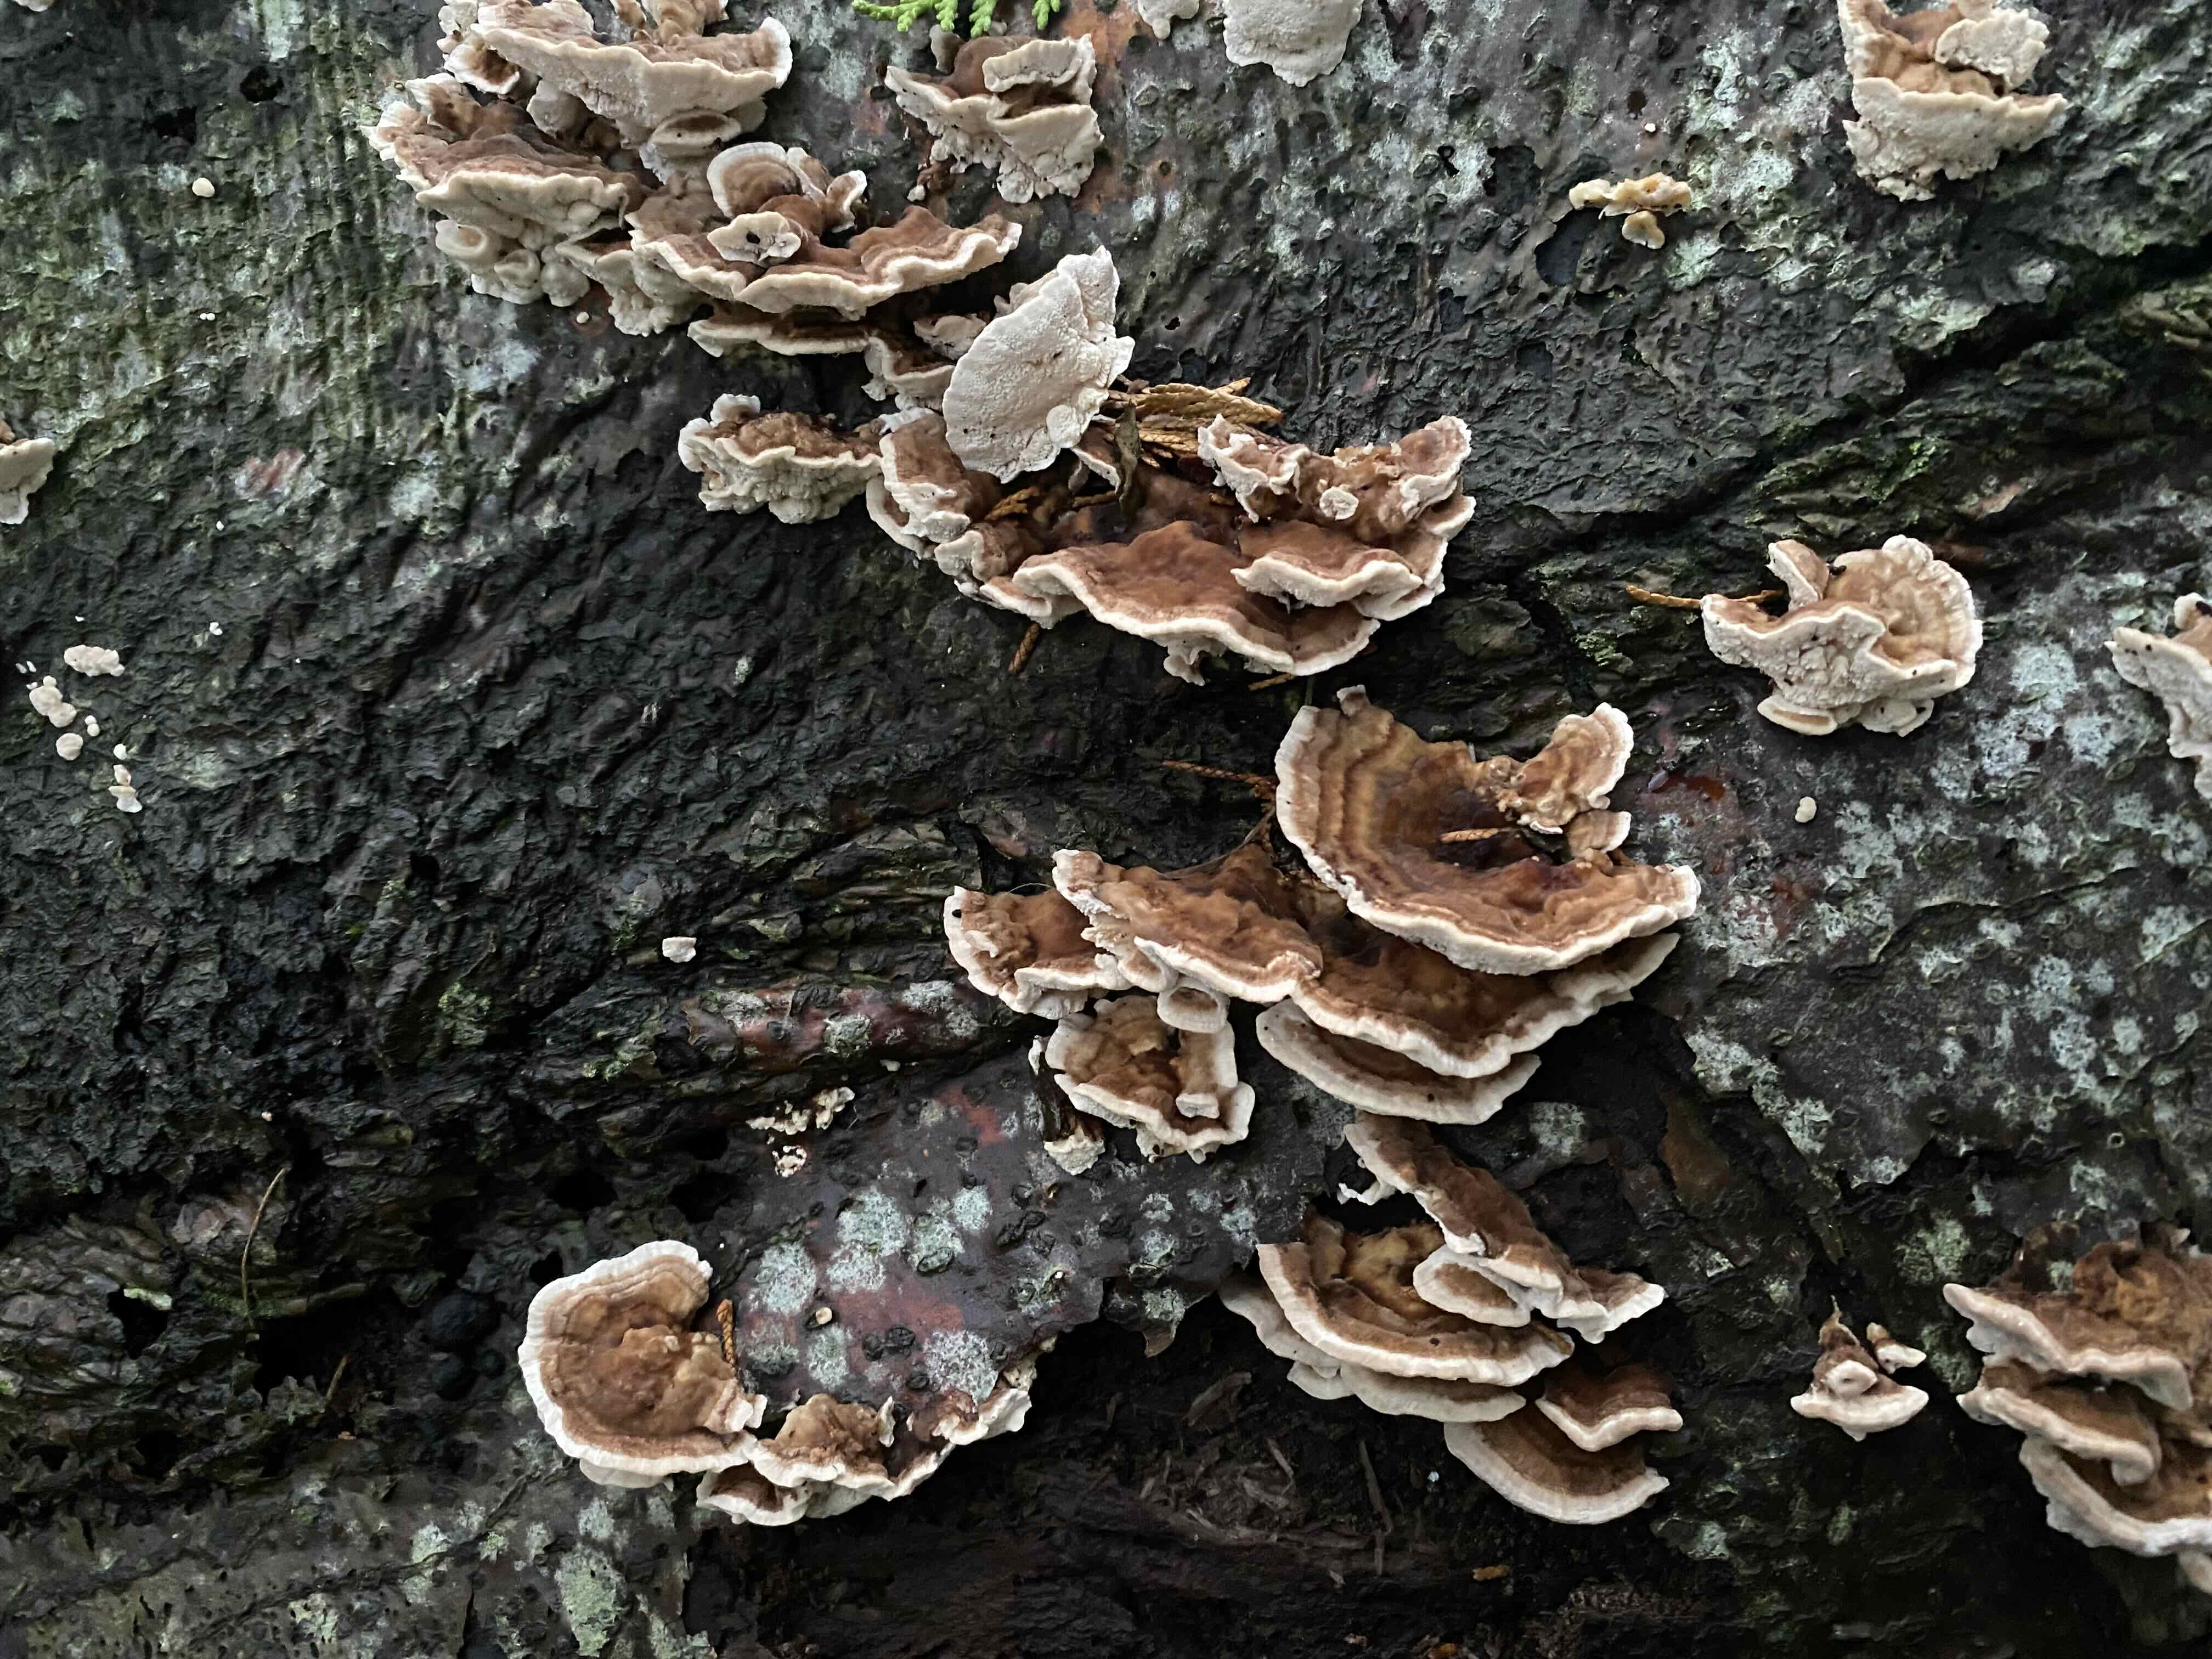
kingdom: Fungi
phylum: Basidiomycota
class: Agaricomycetes
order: Polyporales
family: Polyporaceae
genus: Trametes
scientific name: Trametes versicolor
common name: broget læderporesvamp
